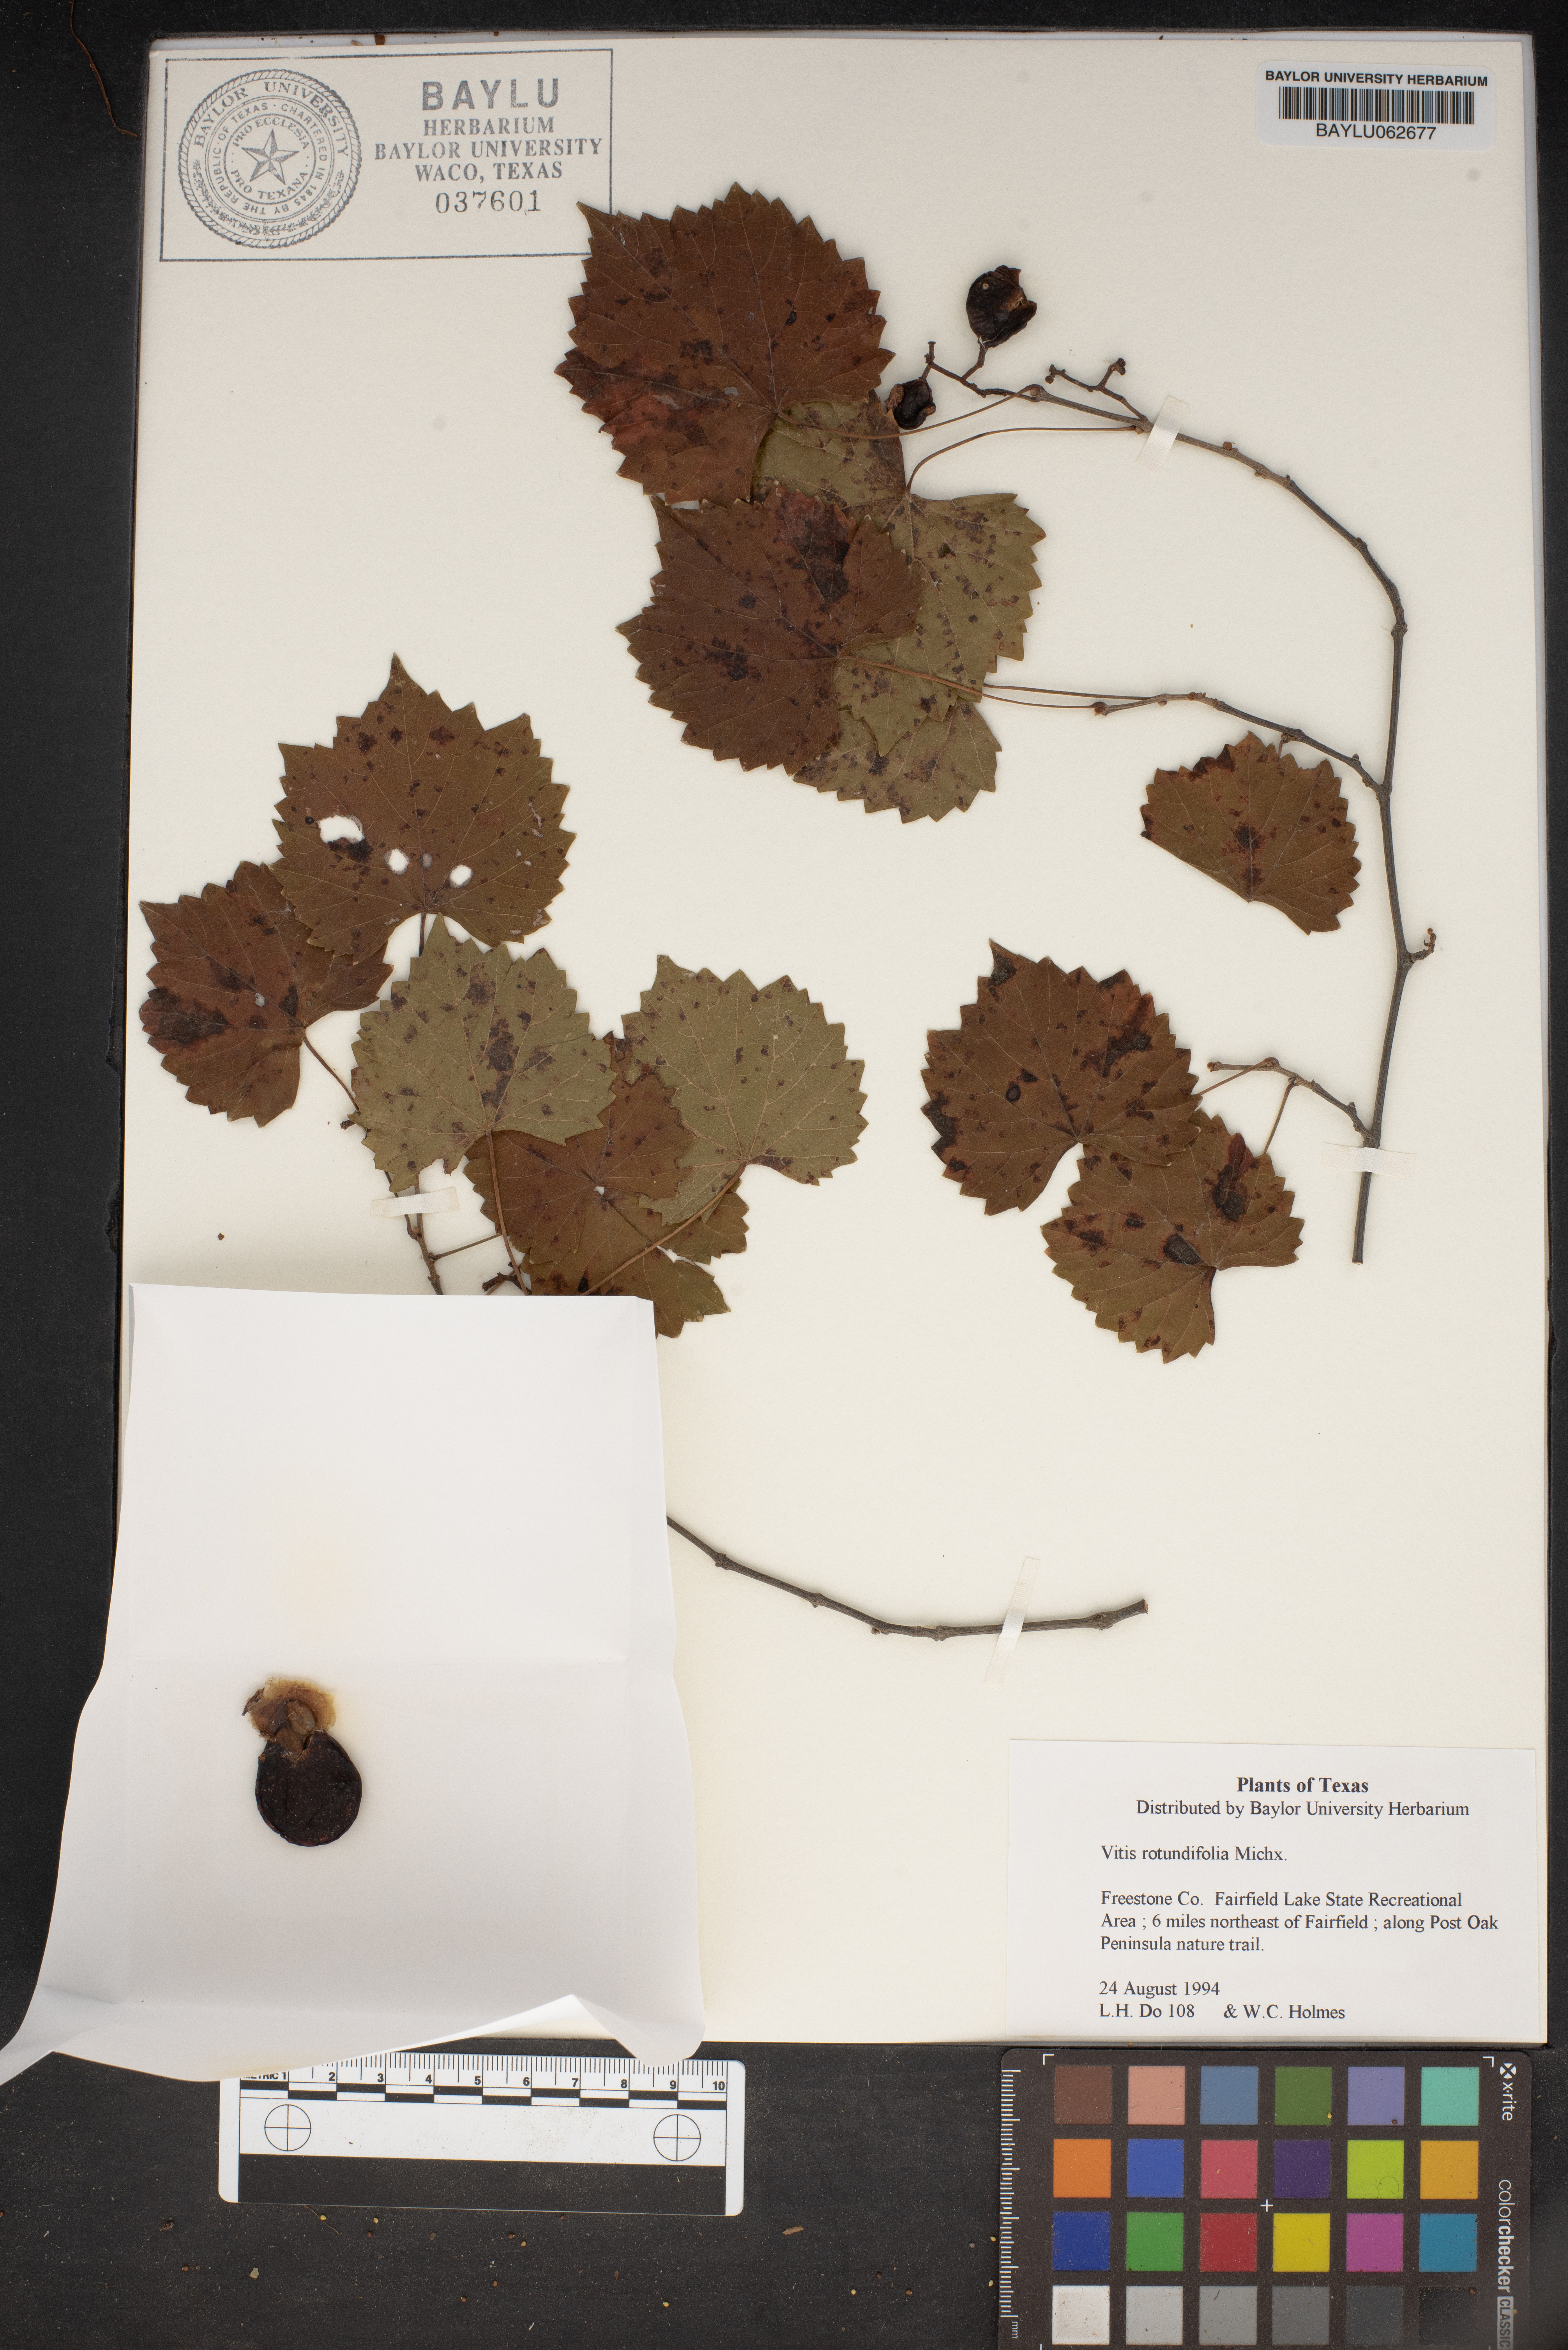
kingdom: Plantae
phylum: Tracheophyta
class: Magnoliopsida
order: Vitales
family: Vitaceae
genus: Vitis
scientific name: Vitis rotundifolia
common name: Muscadine grape
